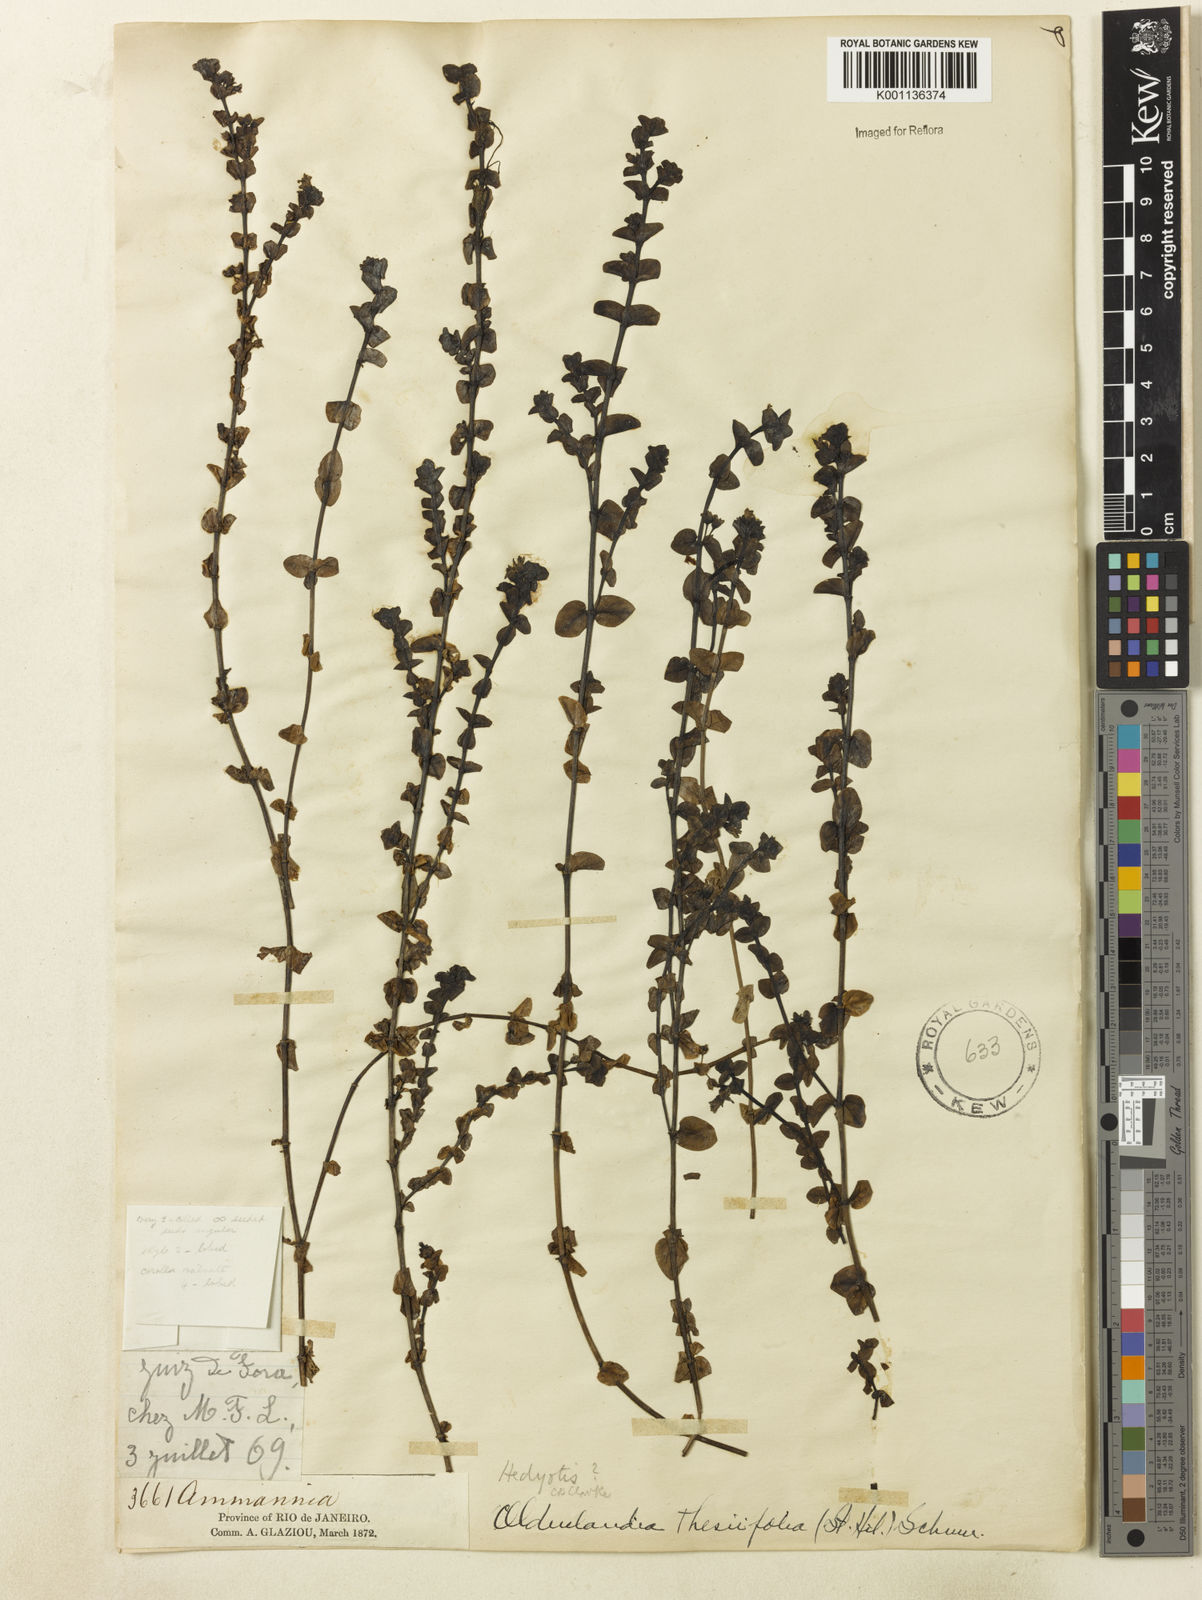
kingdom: Plantae
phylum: Tracheophyta
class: Magnoliopsida
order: Gentianales
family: Rubiaceae
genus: Oldenlandia
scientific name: Oldenlandia salzmannii
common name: Salzmann's mille graines
